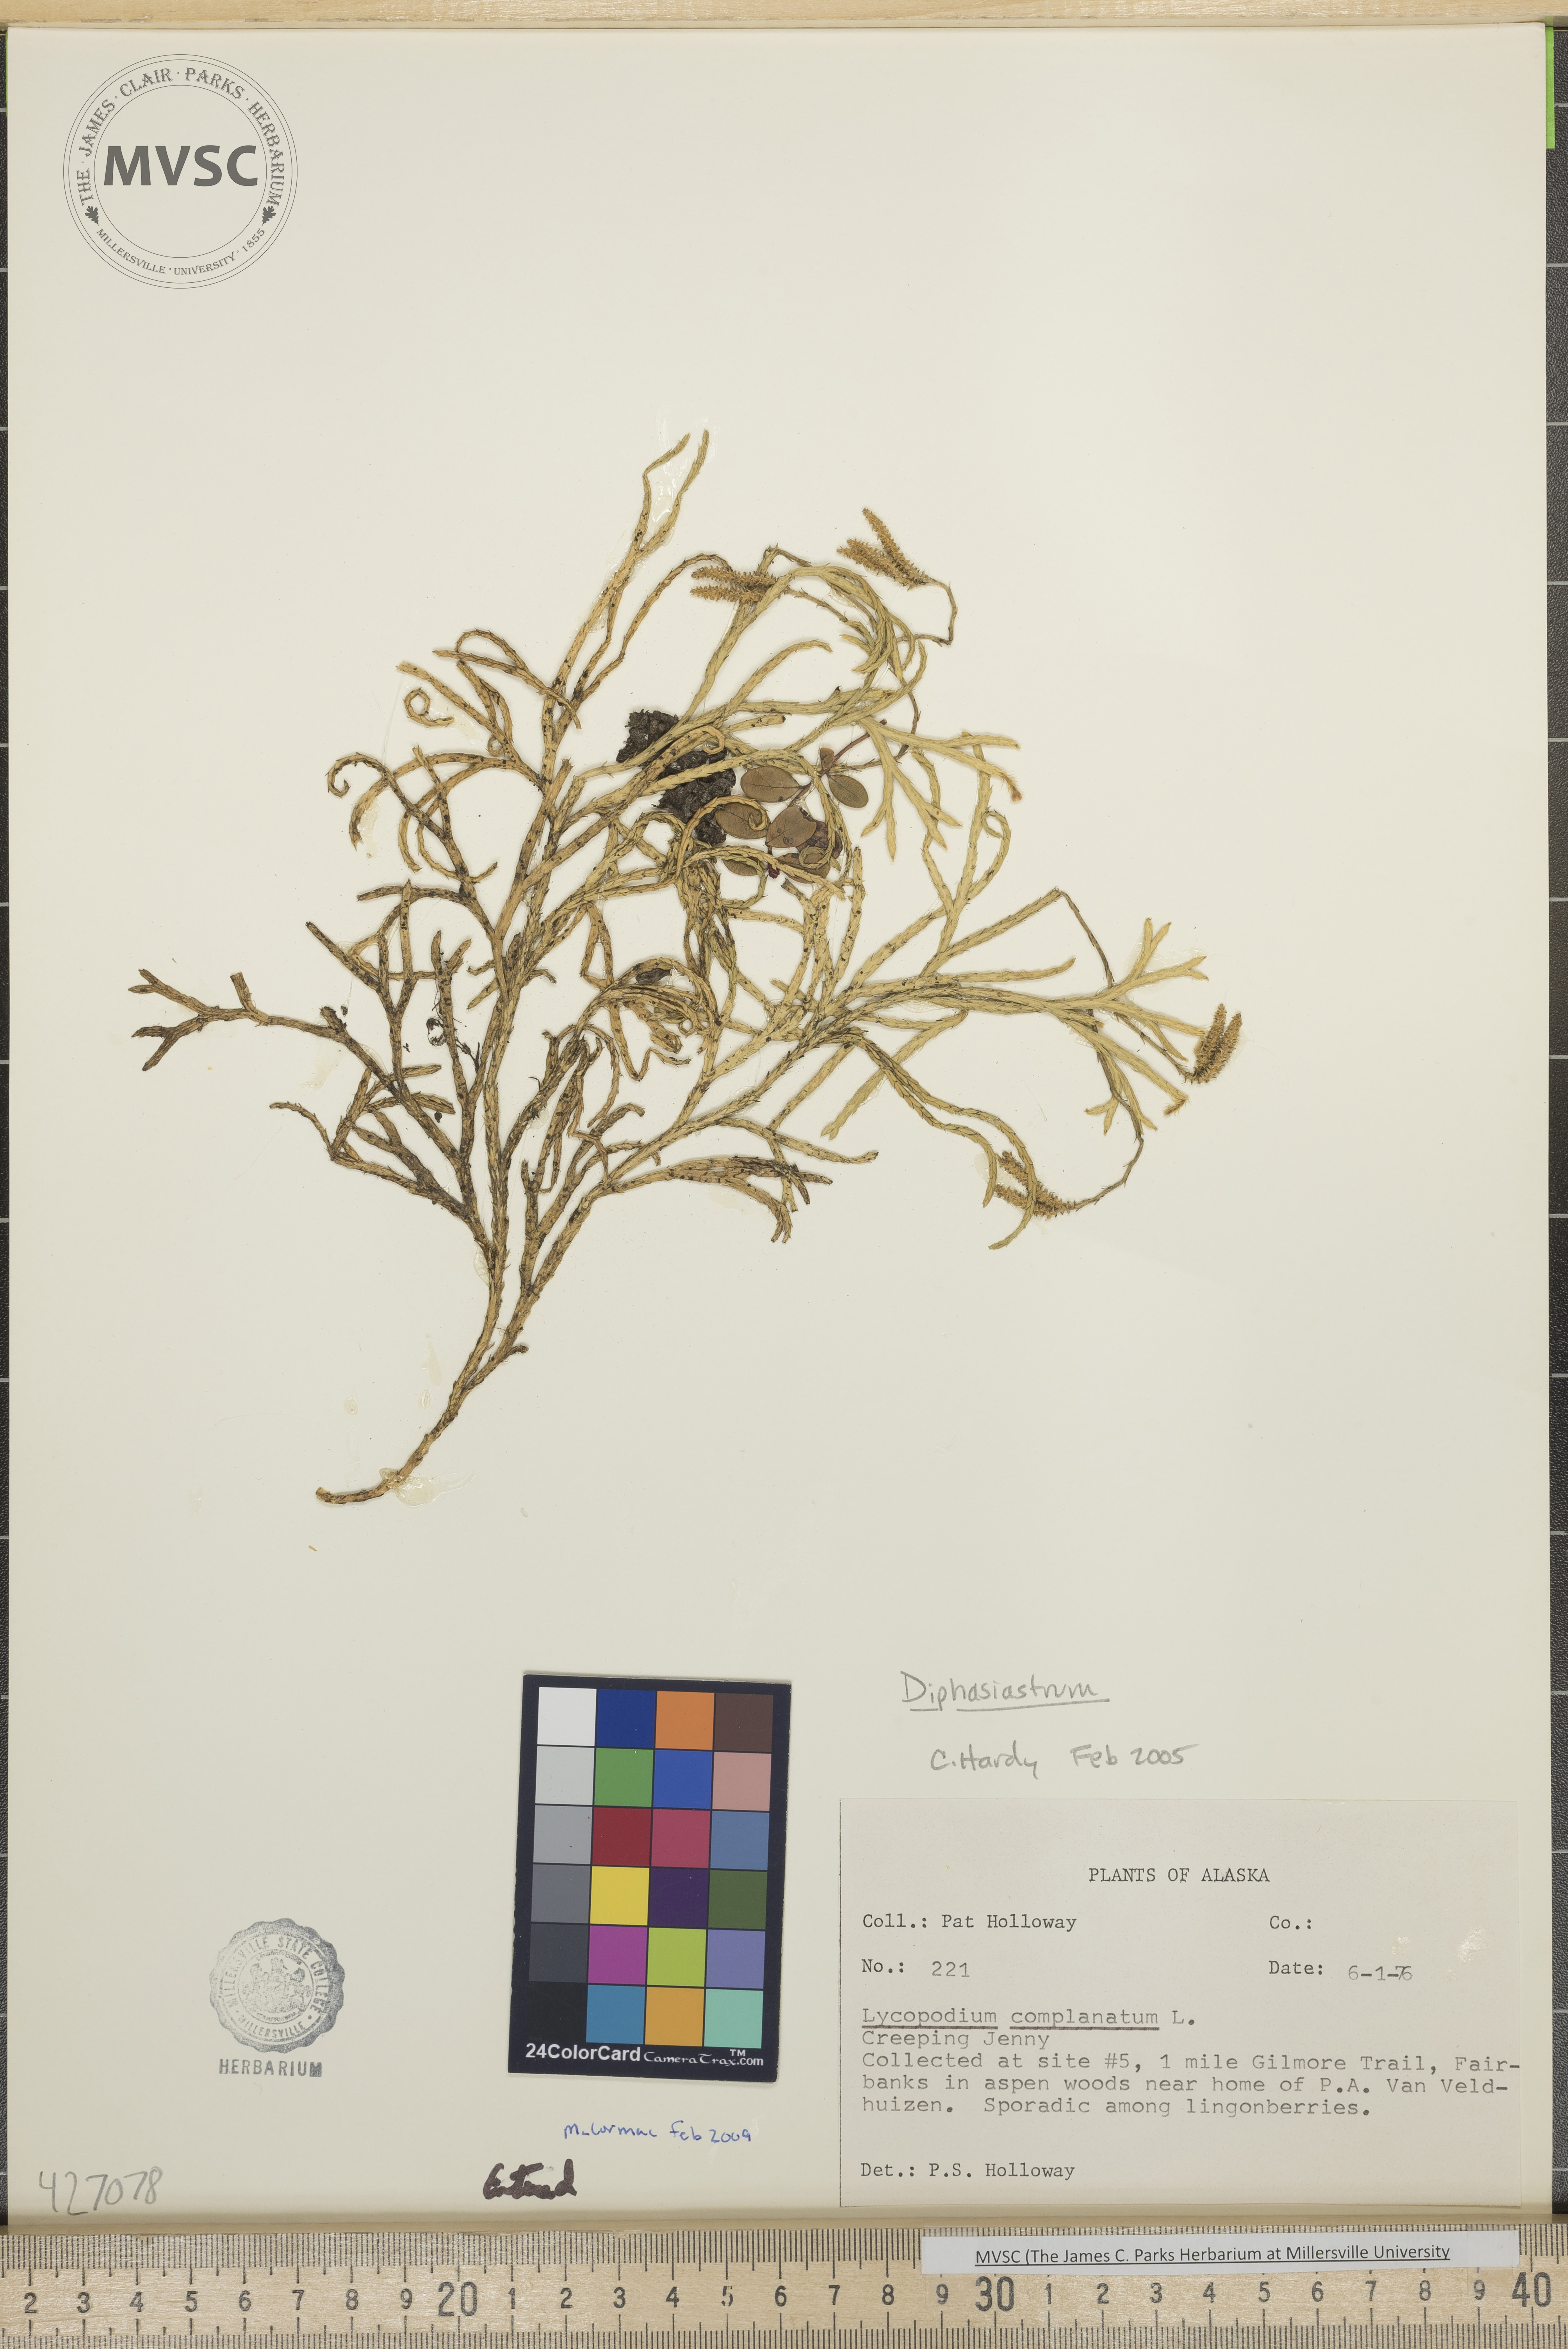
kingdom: Plantae
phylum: Tracheophyta
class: Lycopodiopsida
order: Lycopodiales
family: Lycopodiaceae
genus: Diphasiastrum
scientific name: Diphasiastrum complanatum
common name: Northern running-pine
